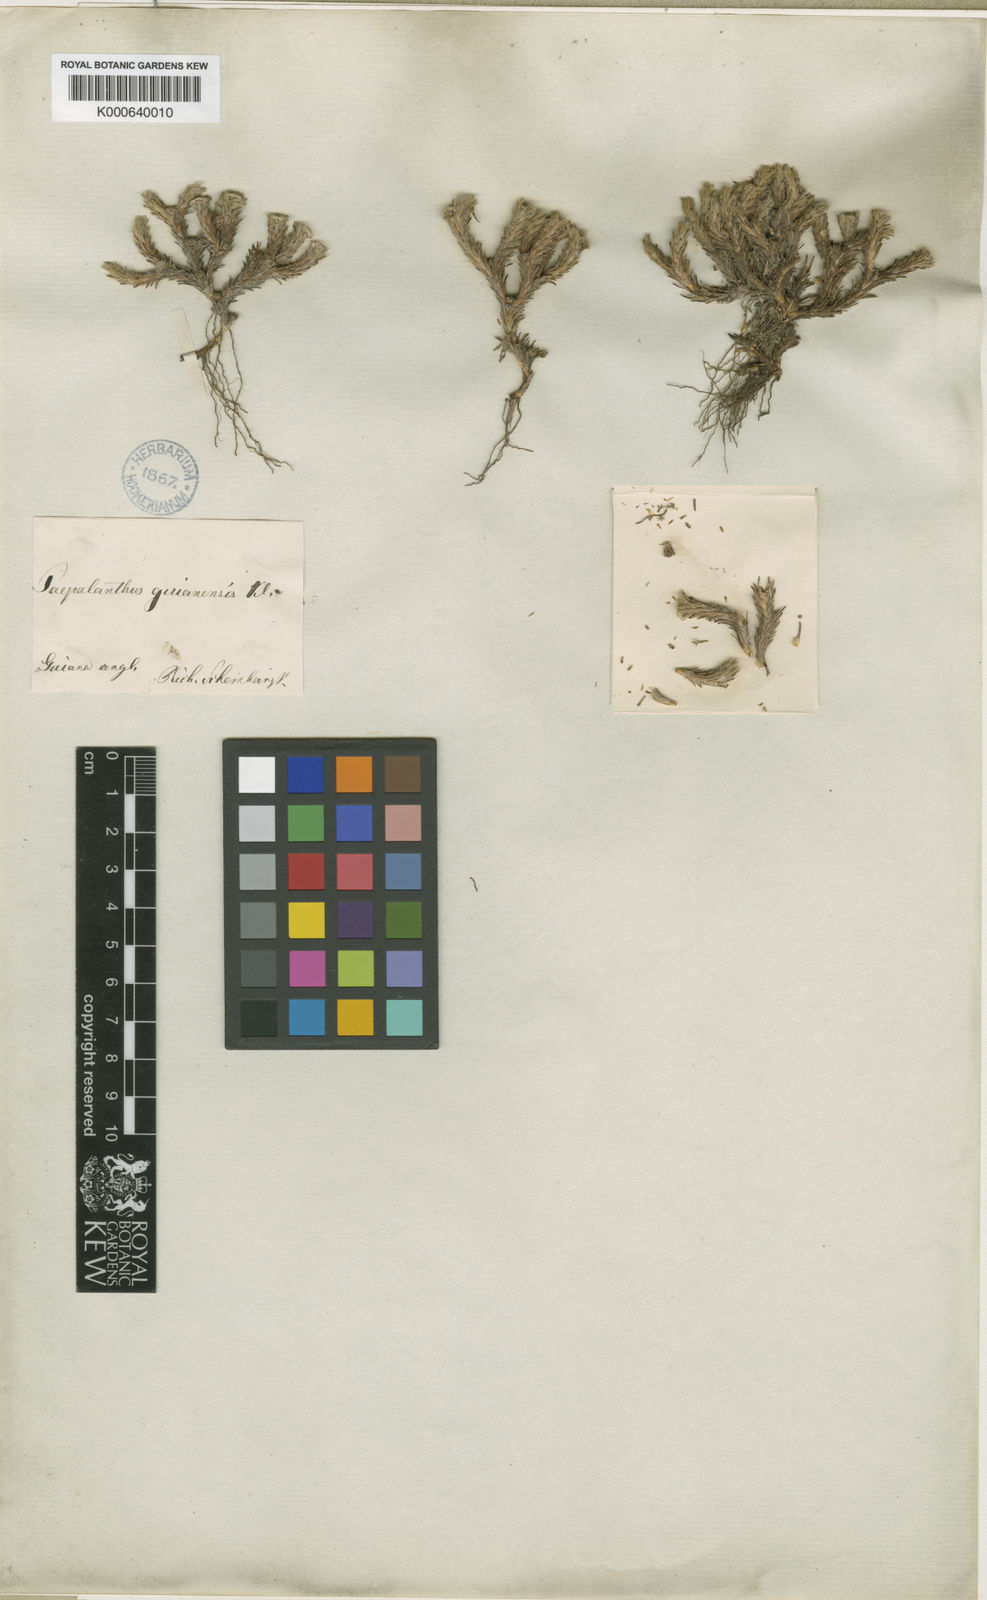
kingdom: Plantae
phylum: Tracheophyta
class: Liliopsida
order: Poales
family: Eriocaulaceae
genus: Paepalanthus
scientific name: Paepalanthus
